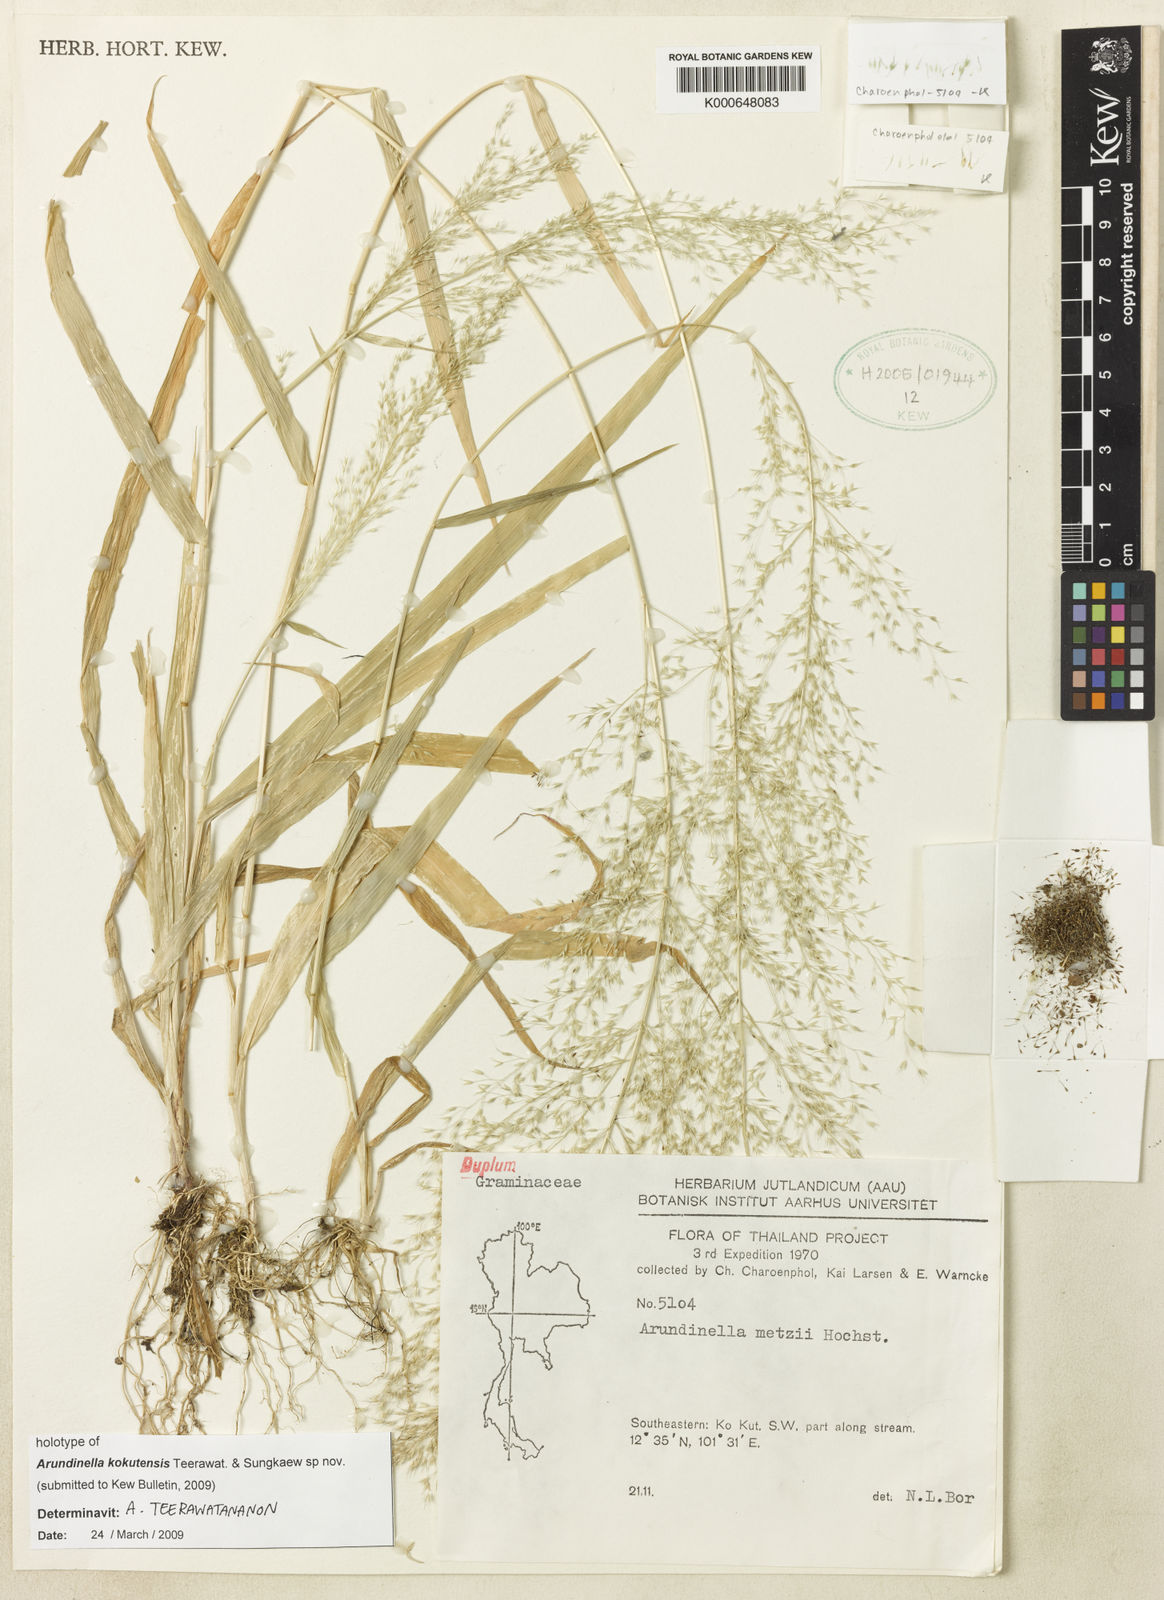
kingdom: Plantae
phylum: Tracheophyta
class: Liliopsida
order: Poales
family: Poaceae
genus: Arundinella
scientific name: Arundinella kokutensis
